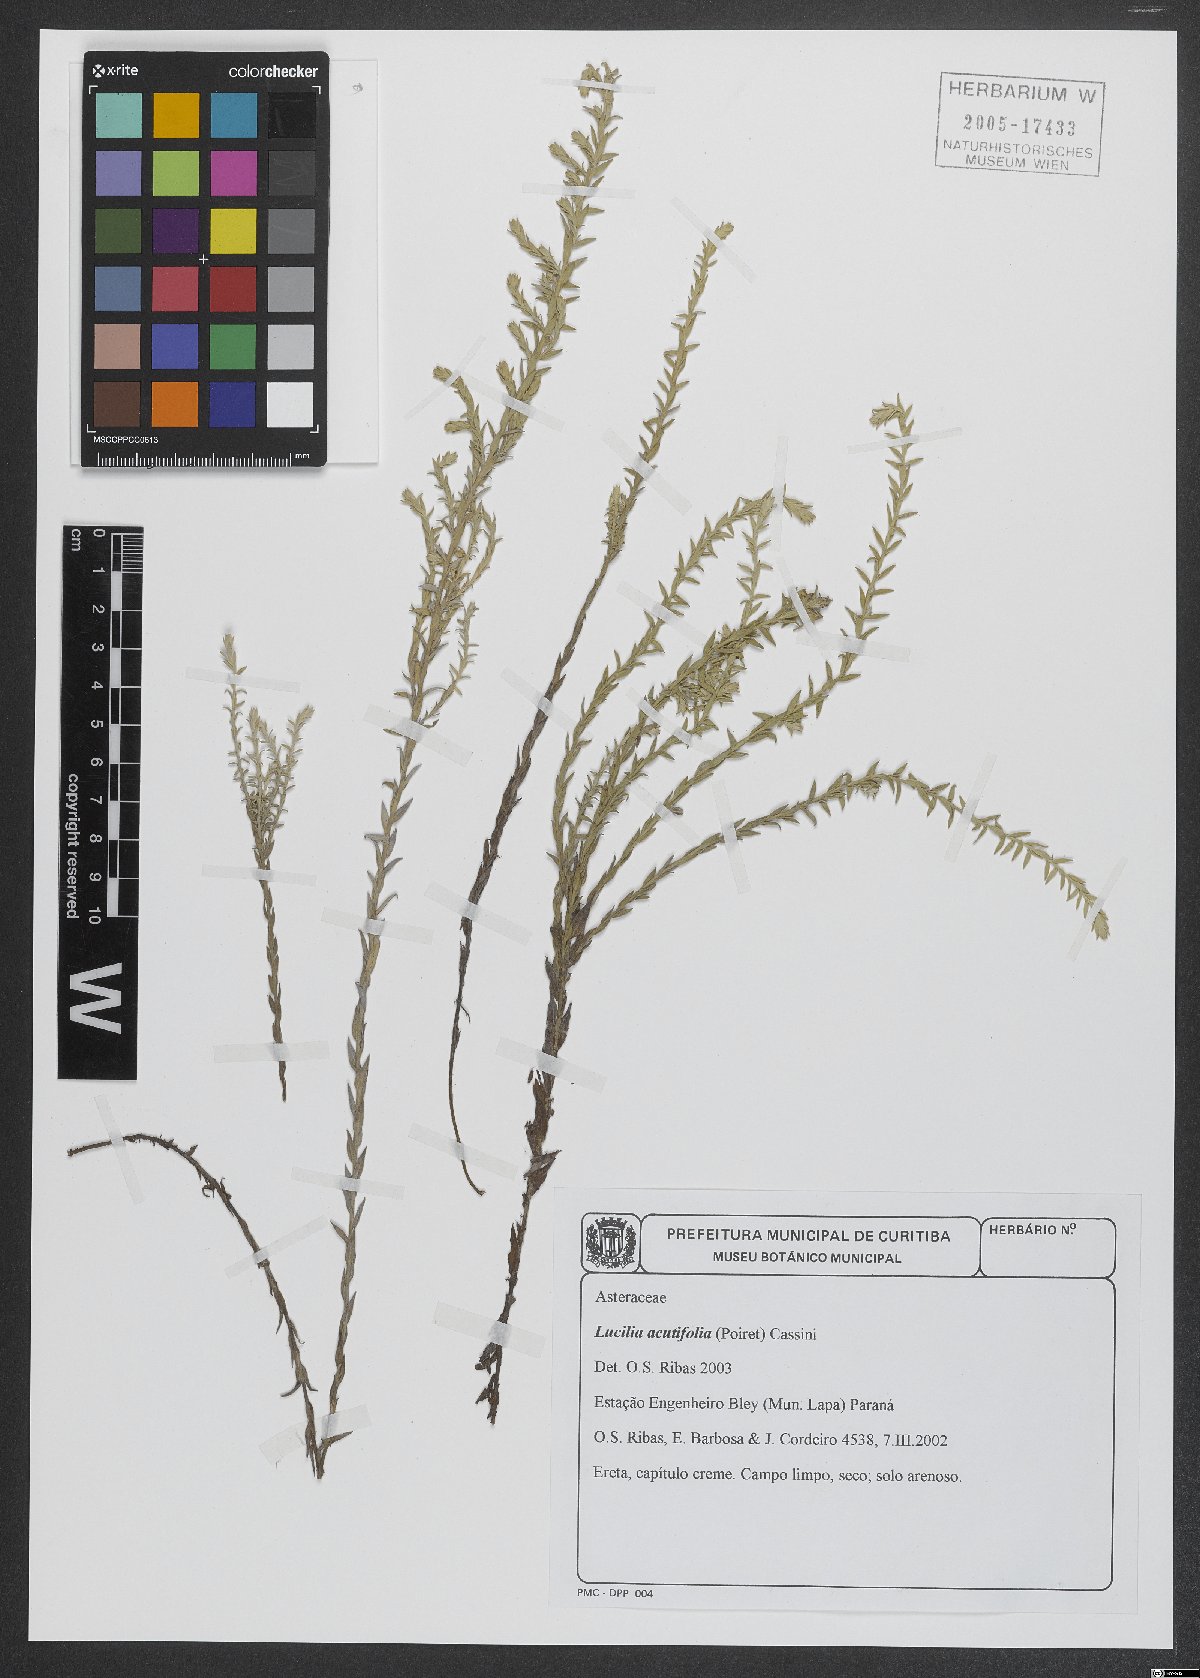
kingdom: Plantae
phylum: Tracheophyta
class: Magnoliopsida
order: Asterales
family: Asteraceae
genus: Lucilia
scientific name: Lucilia acutifolia
